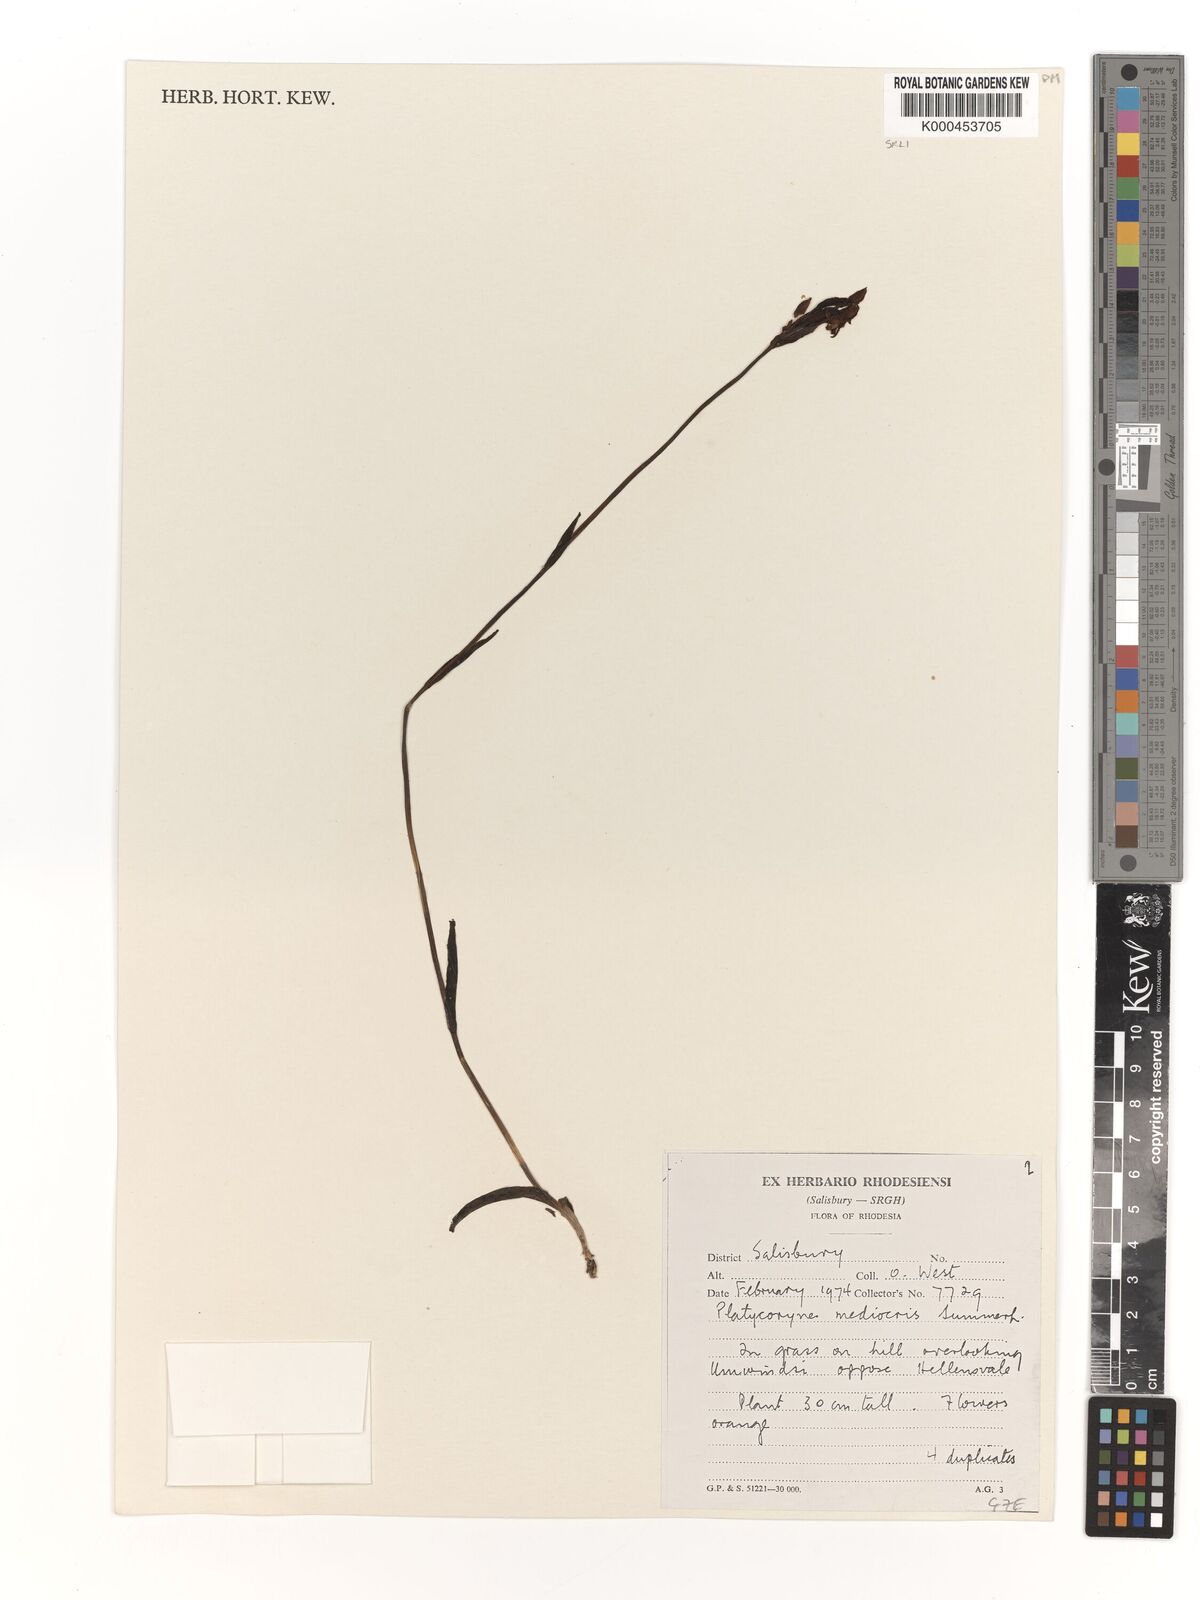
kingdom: Plantae
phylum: Tracheophyta
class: Liliopsida
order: Asparagales
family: Orchidaceae
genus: Platycoryne
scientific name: Platycoryne mediocris
